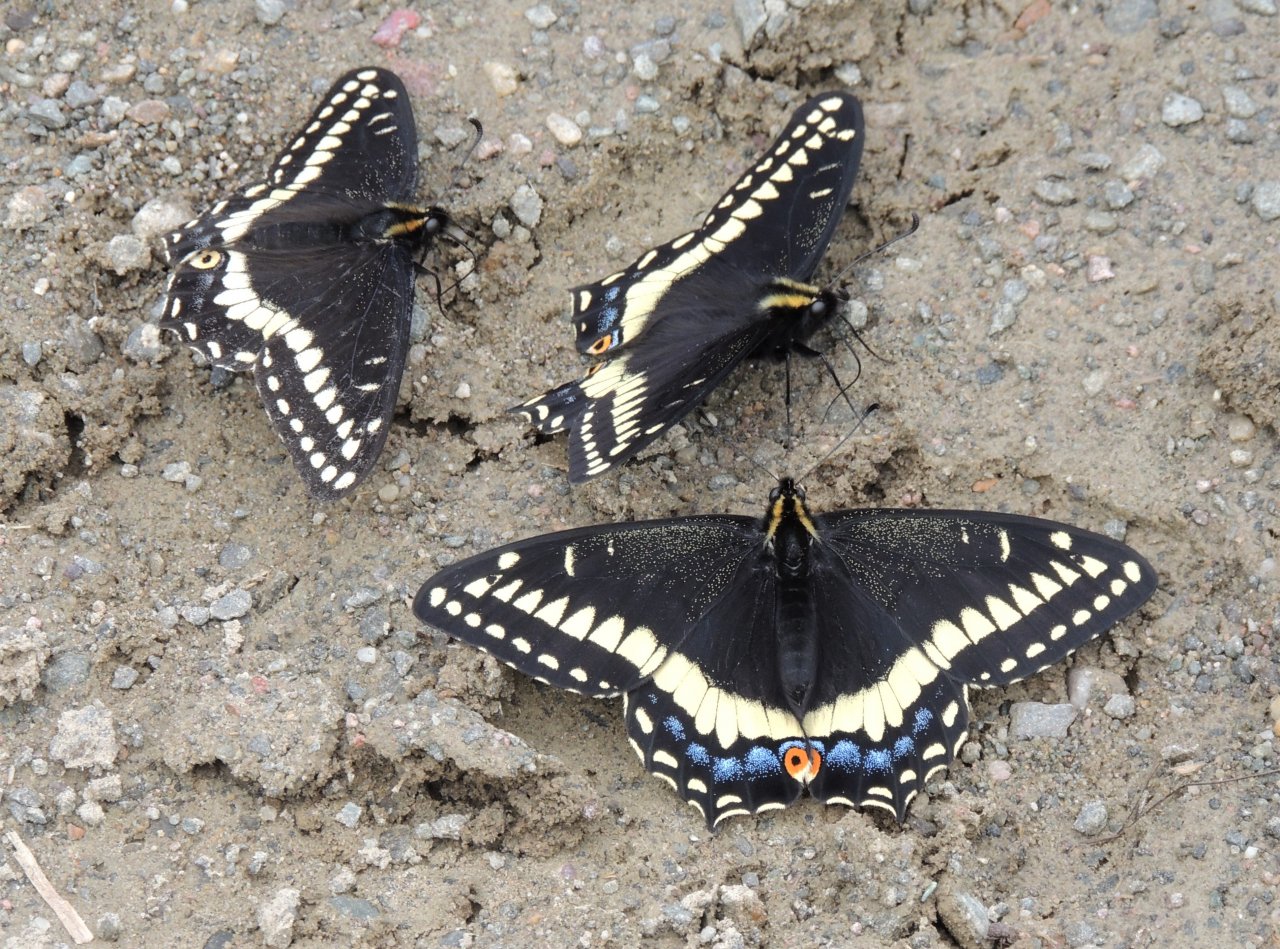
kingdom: Animalia
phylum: Arthropoda
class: Insecta
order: Lepidoptera
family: Papilionidae
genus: Papilio
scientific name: Papilio indra
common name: Indra Swallowtail
